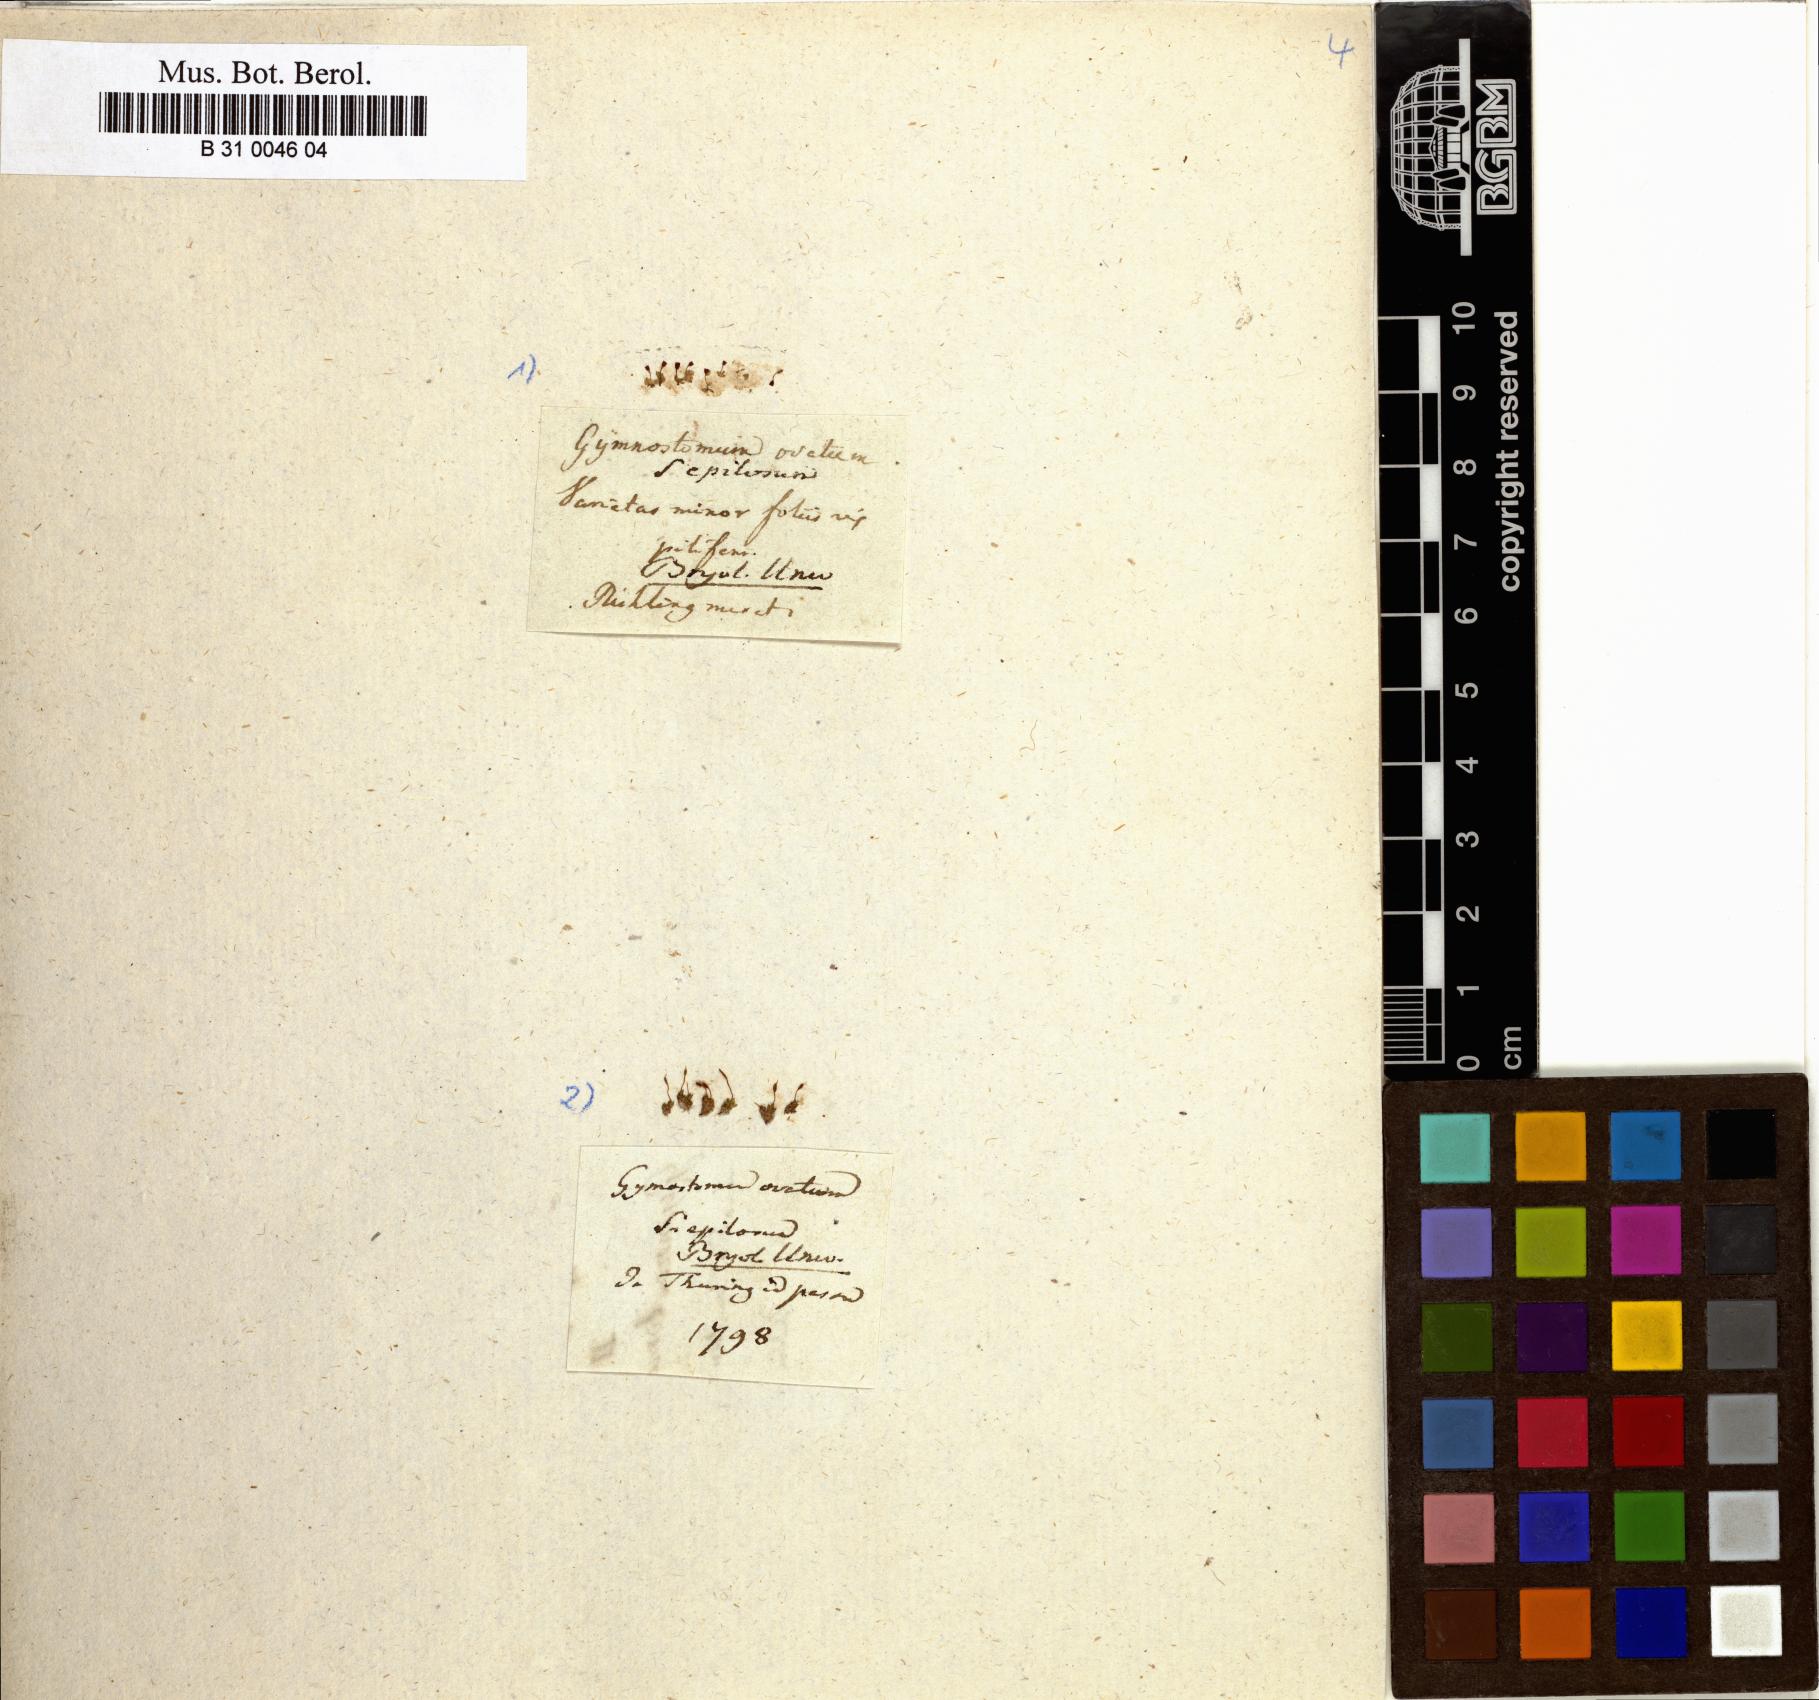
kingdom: Plantae
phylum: Bryophyta
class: Bryopsida
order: Pottiales
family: Pottiaceae
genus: Pterygoneurum
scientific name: Pterygoneurum ovatum
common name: Ovate pterygoneurum
